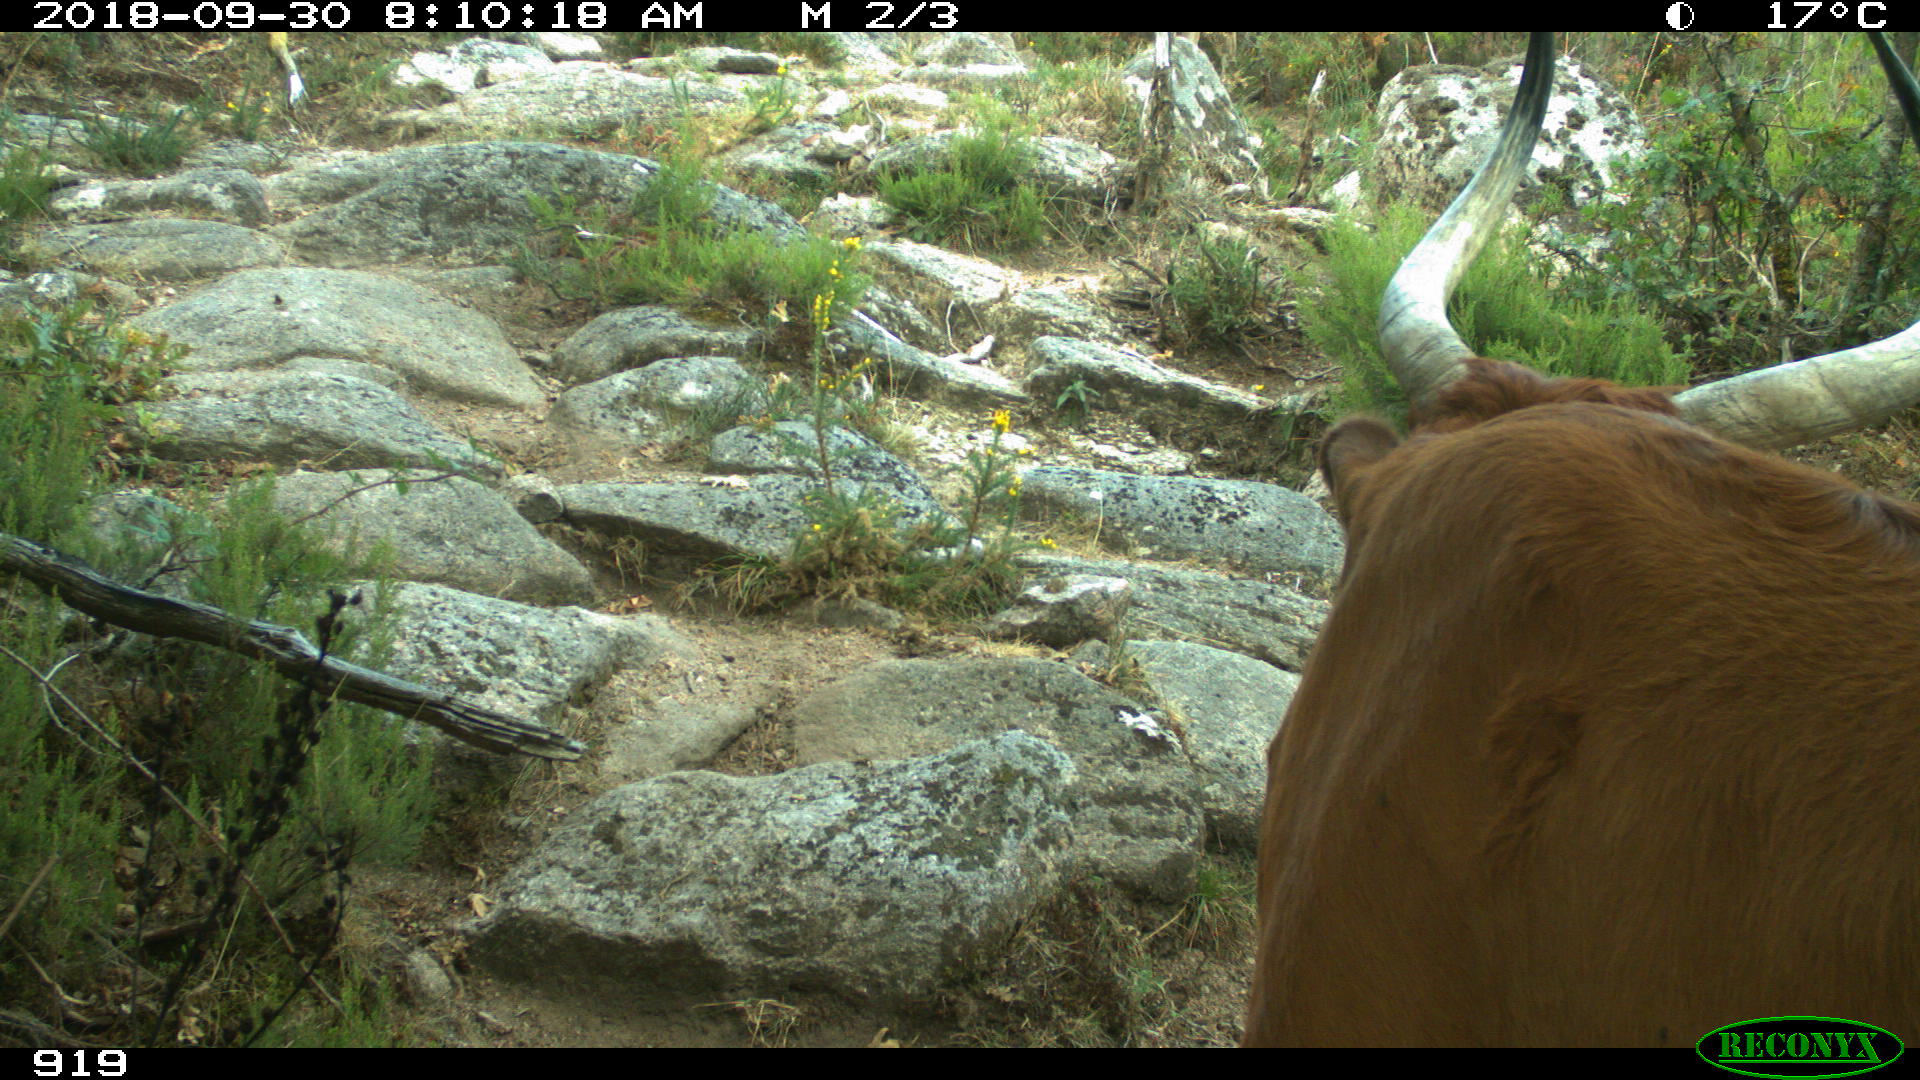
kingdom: Animalia
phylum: Chordata
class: Mammalia
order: Artiodactyla
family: Bovidae
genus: Bos
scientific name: Bos taurus
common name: Domesticated cattle
